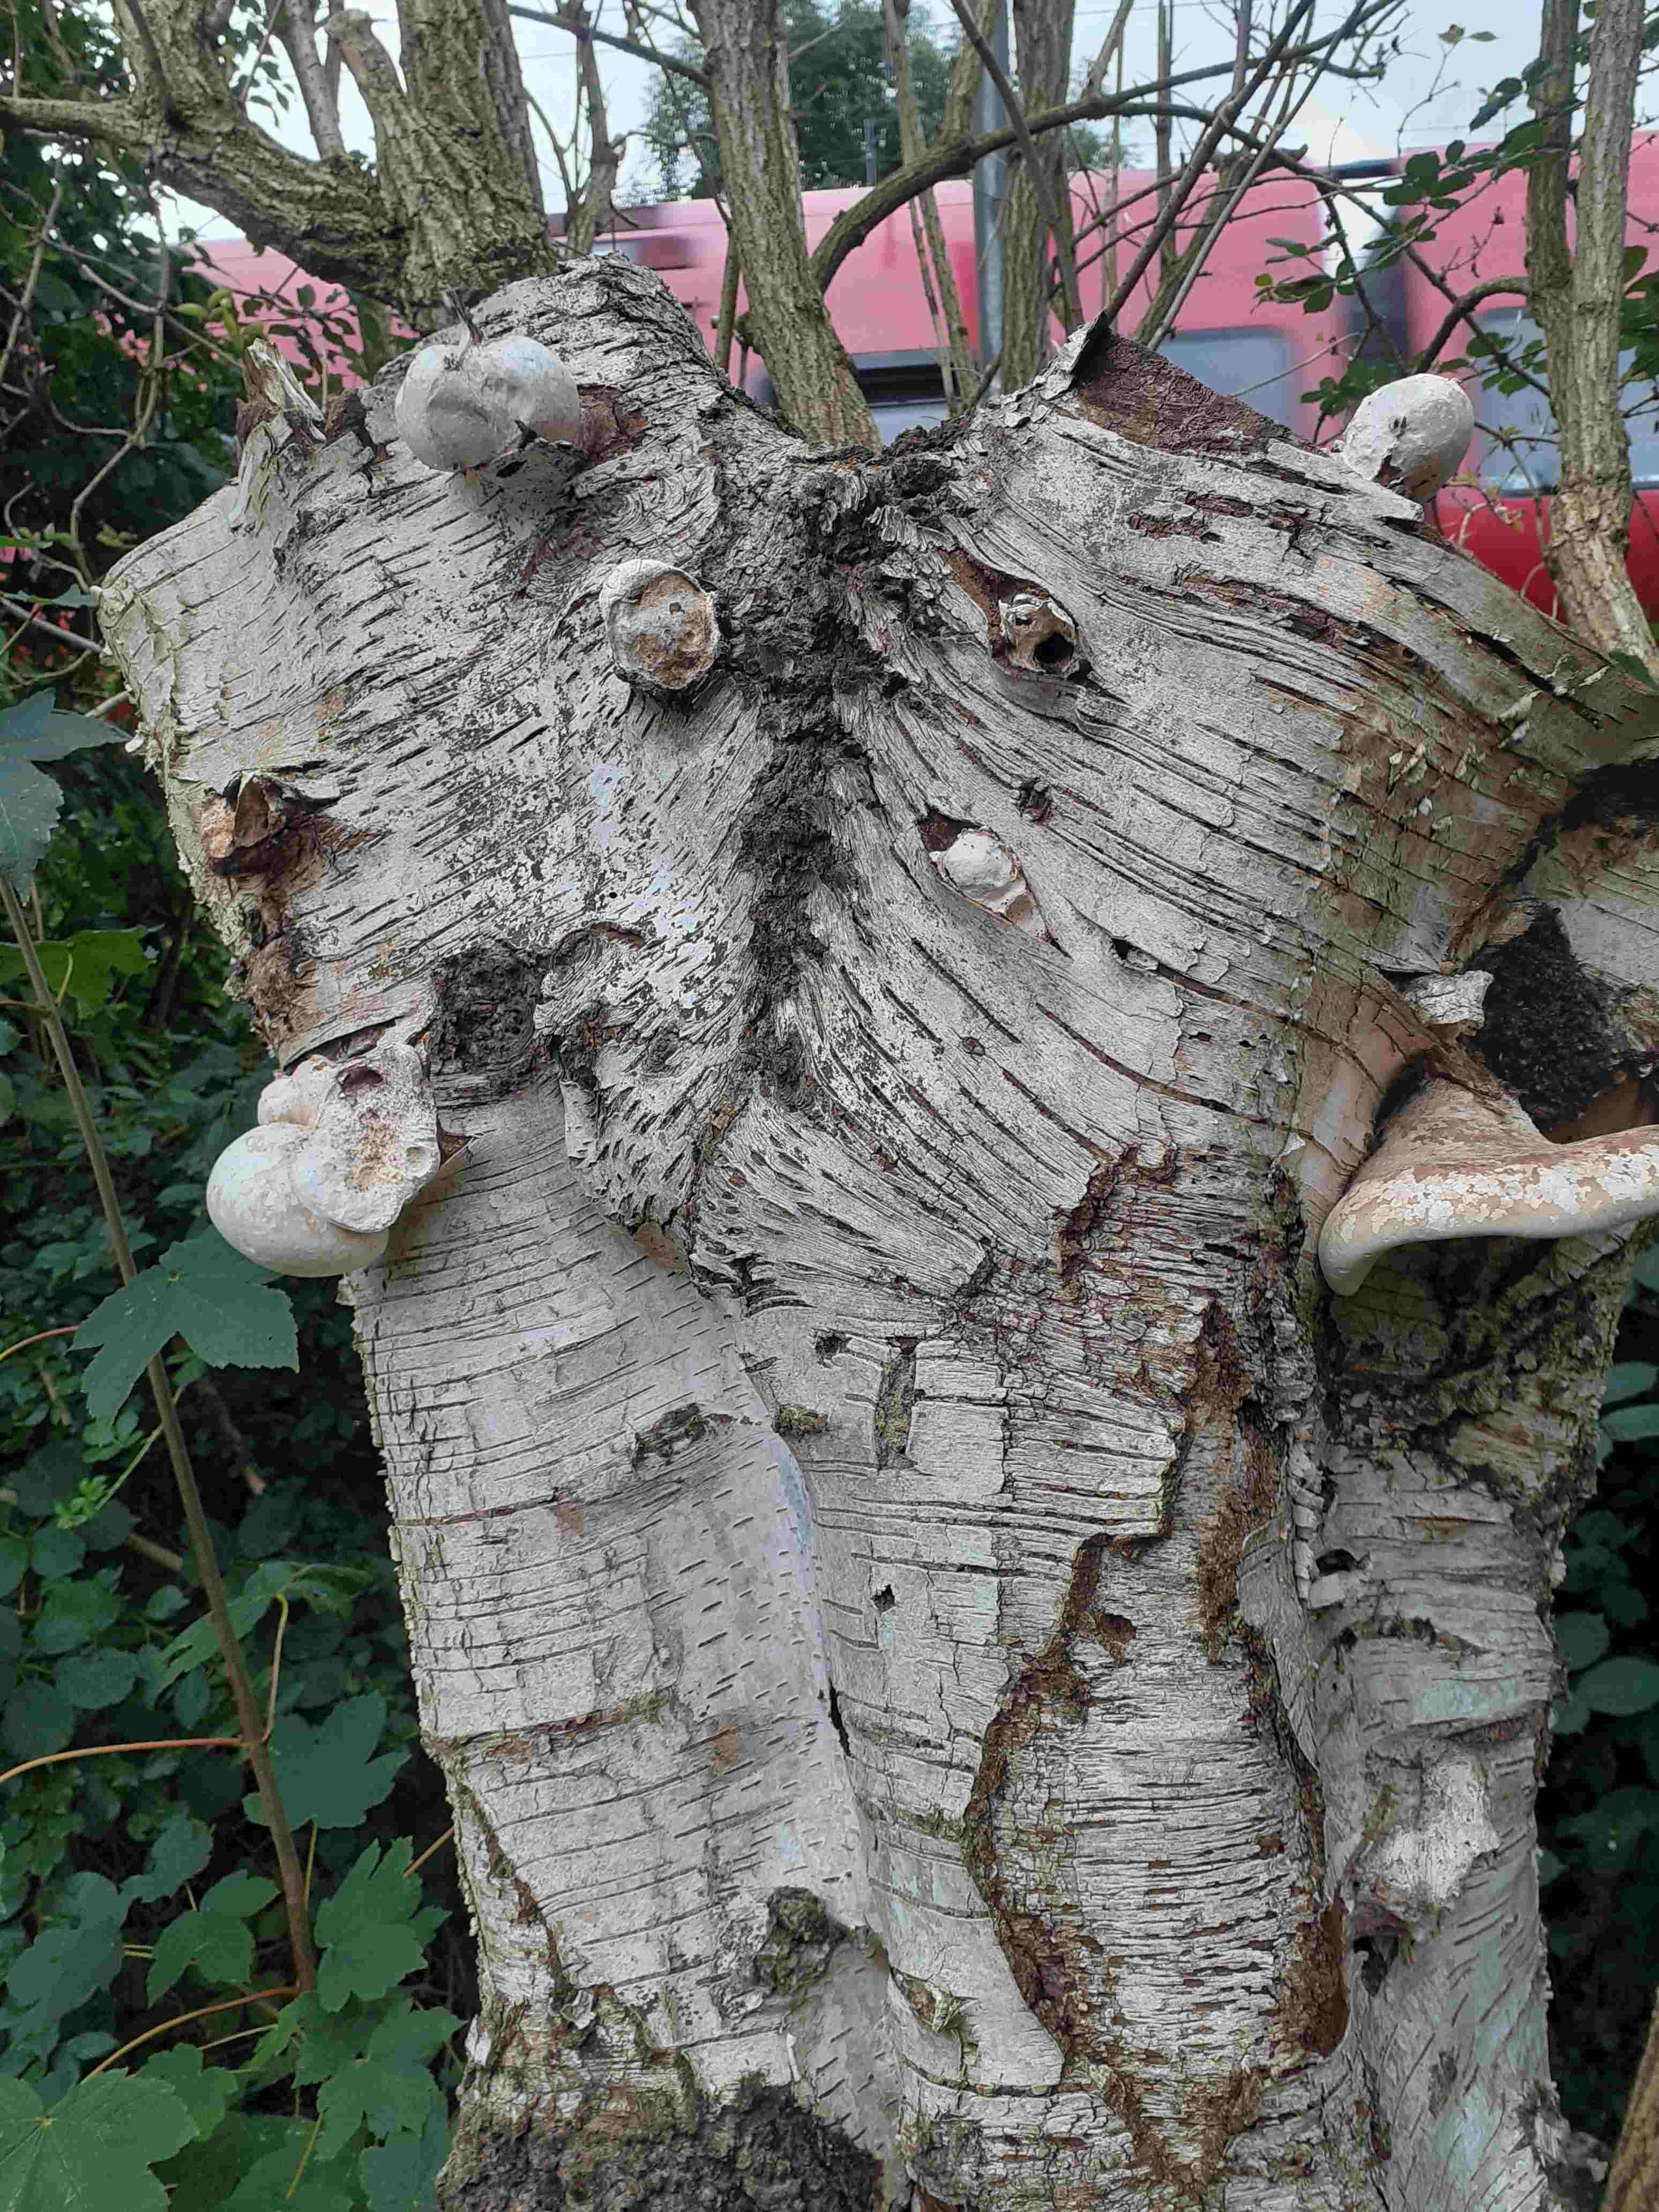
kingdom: Fungi
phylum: Basidiomycota
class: Agaricomycetes
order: Polyporales
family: Fomitopsidaceae
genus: Fomitopsis
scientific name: Fomitopsis betulina
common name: birkeporesvamp
